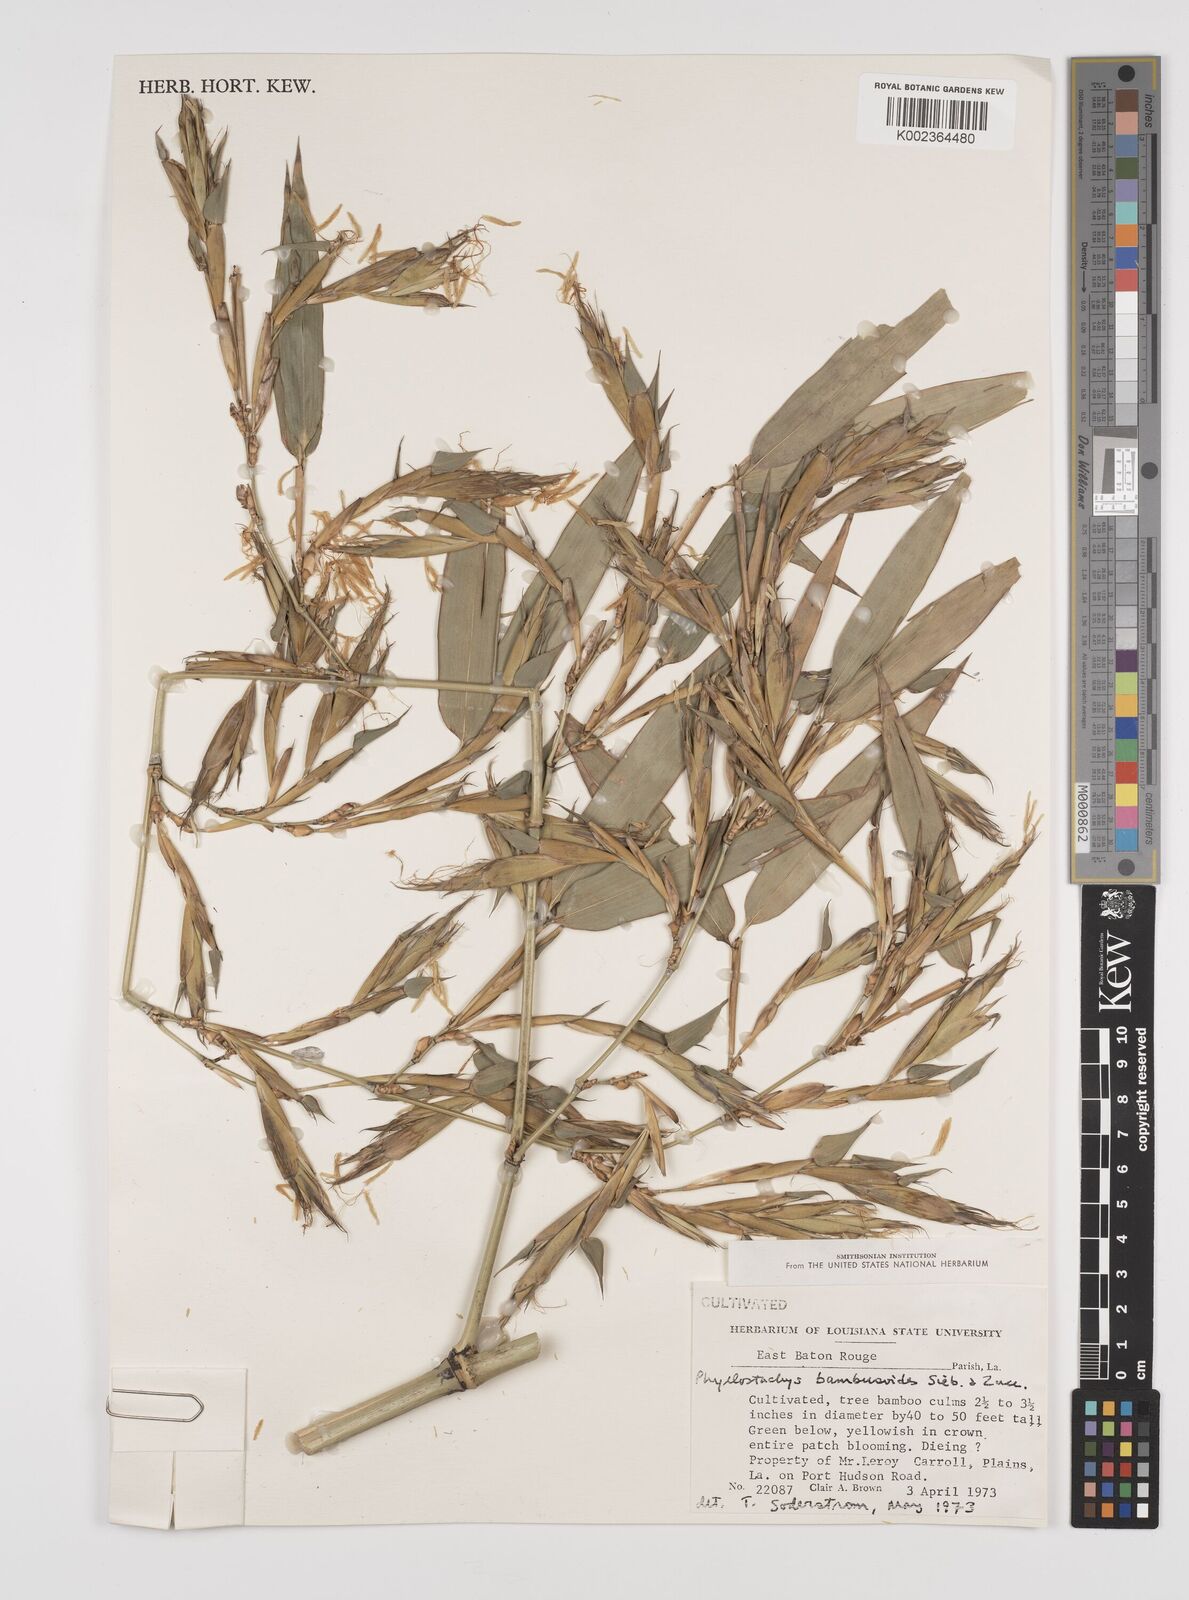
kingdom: Plantae
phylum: Tracheophyta
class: Liliopsida
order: Poales
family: Poaceae
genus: Phyllostachys
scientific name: Phyllostachys reticulata
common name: Bamboo
